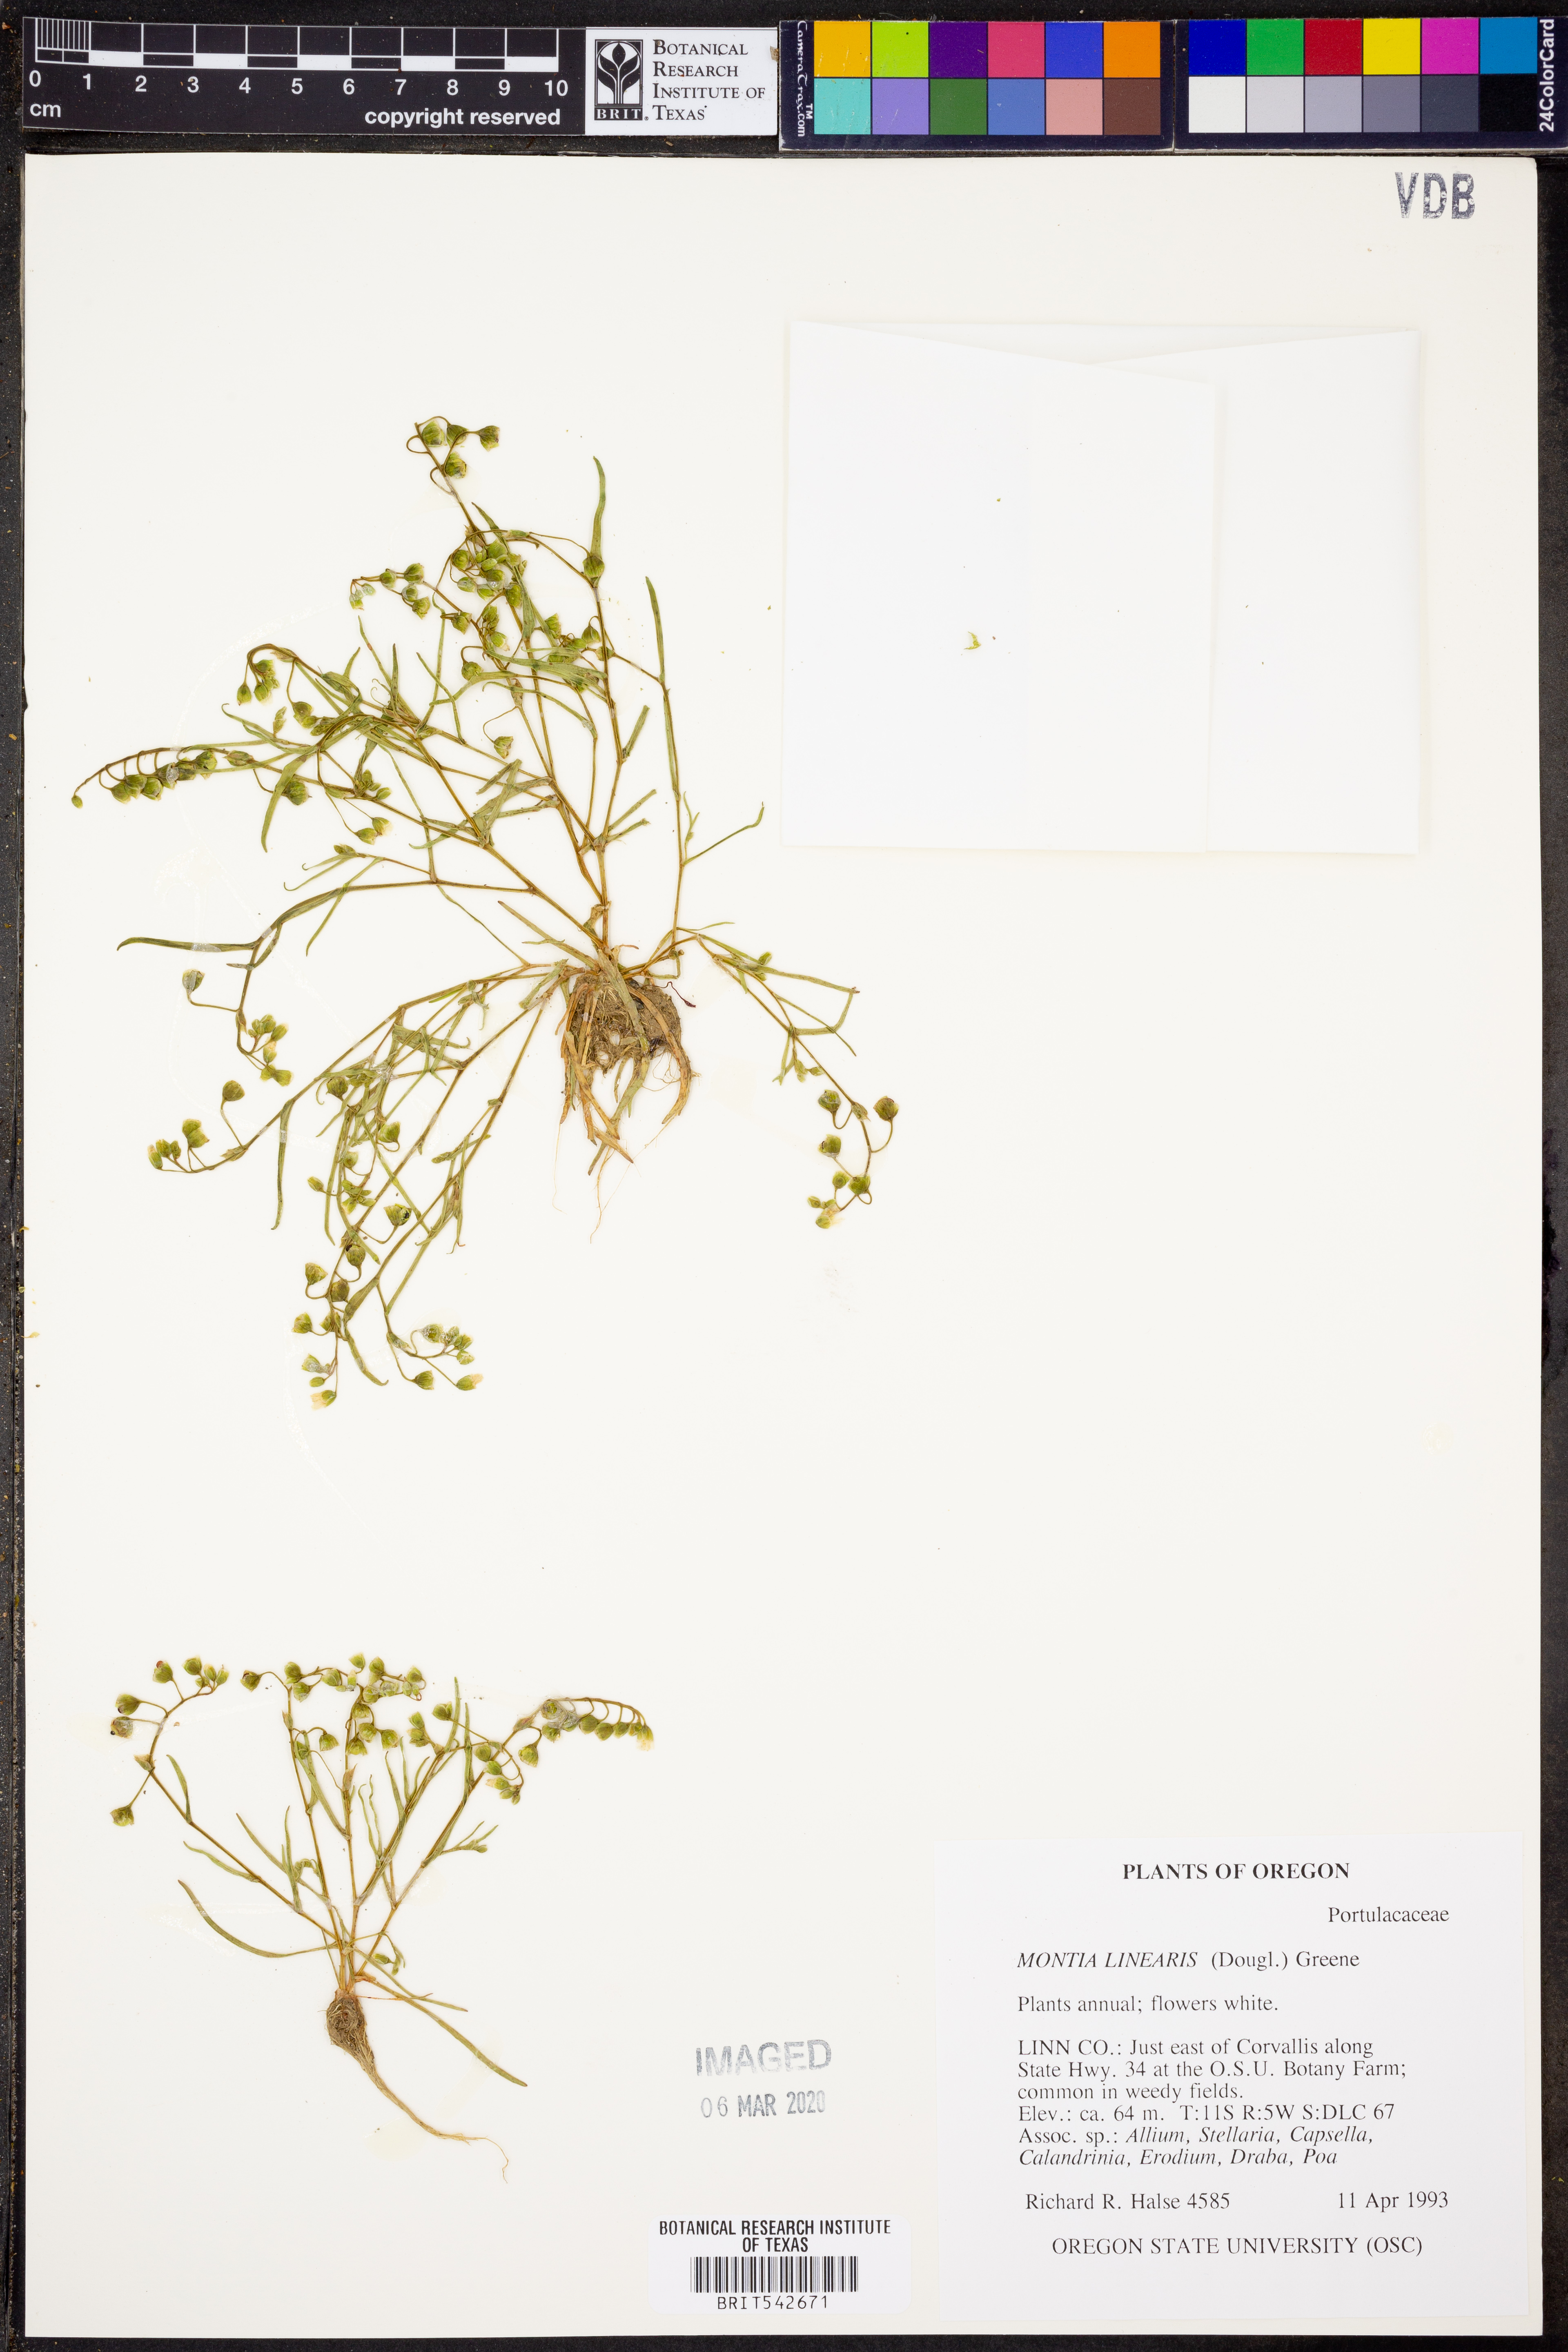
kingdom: Plantae
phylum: Tracheophyta
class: Magnoliopsida
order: Caryophyllales
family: Montiaceae
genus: Montia
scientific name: Montia linearis
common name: Narrow-leaf montia
